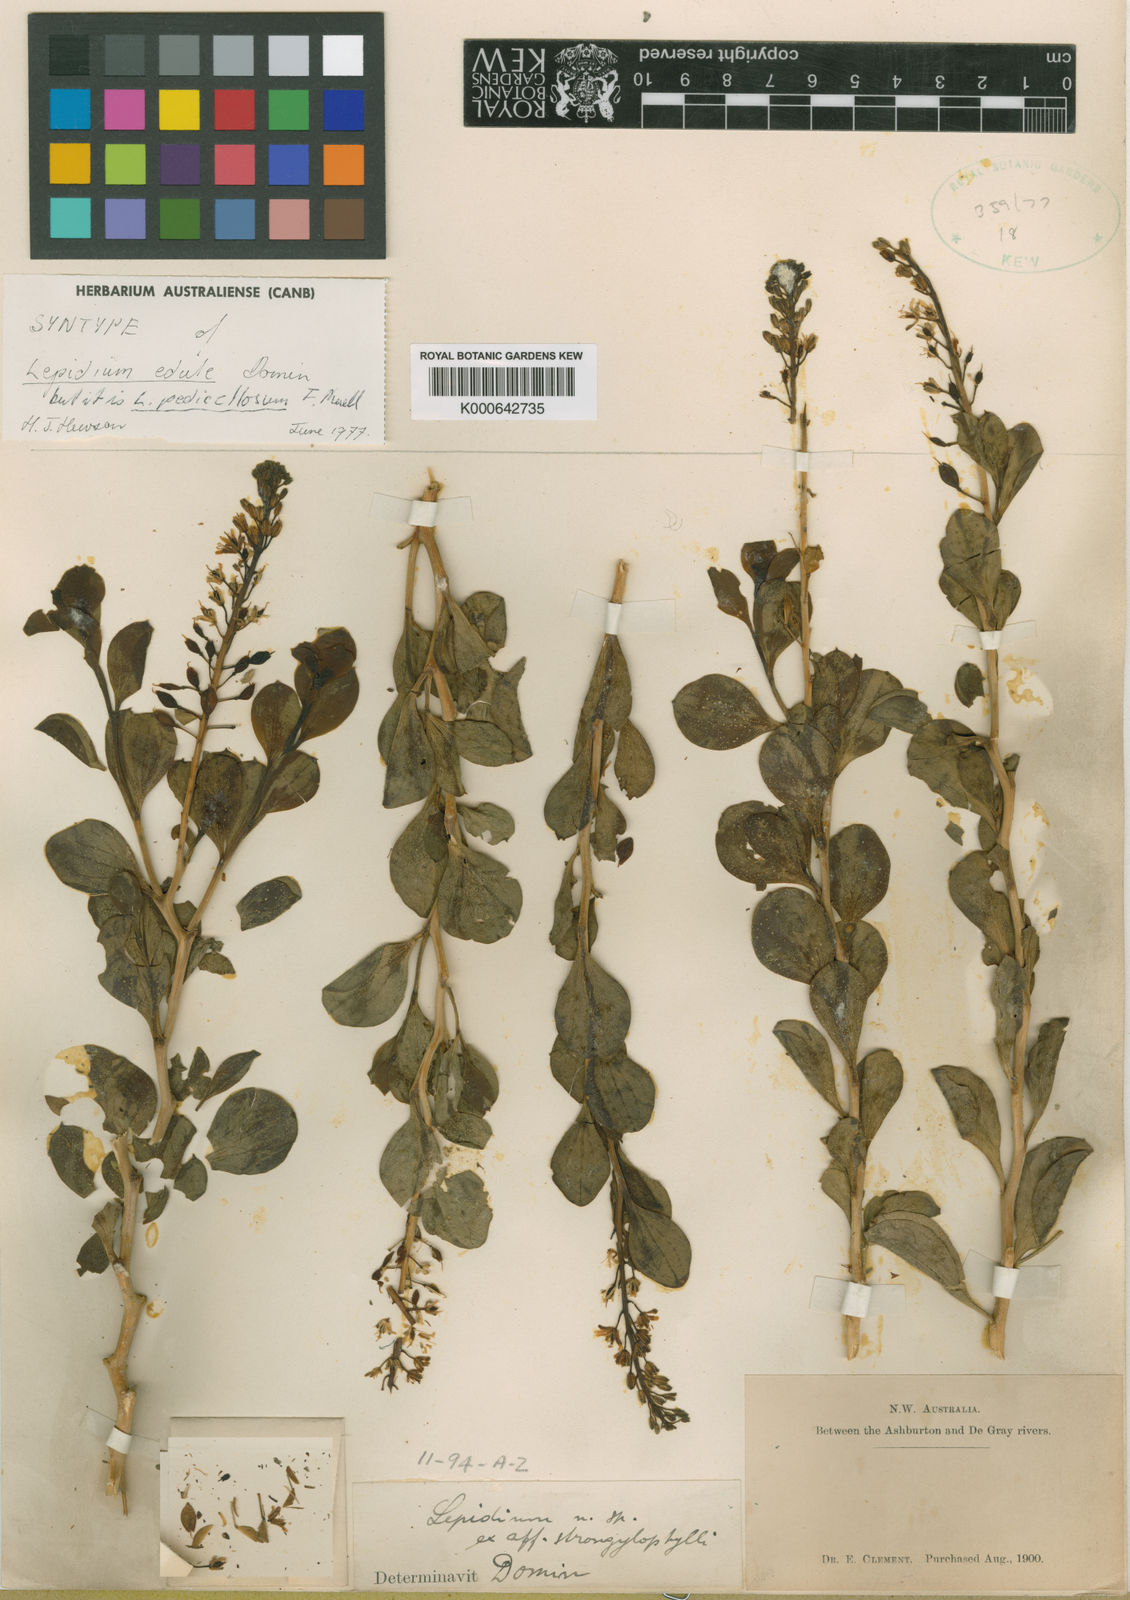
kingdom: Plantae
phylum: Tracheophyta
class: Magnoliopsida
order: Brassicales
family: Brassicaceae
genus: Lepidium
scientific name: Lepidium pedicellosum
